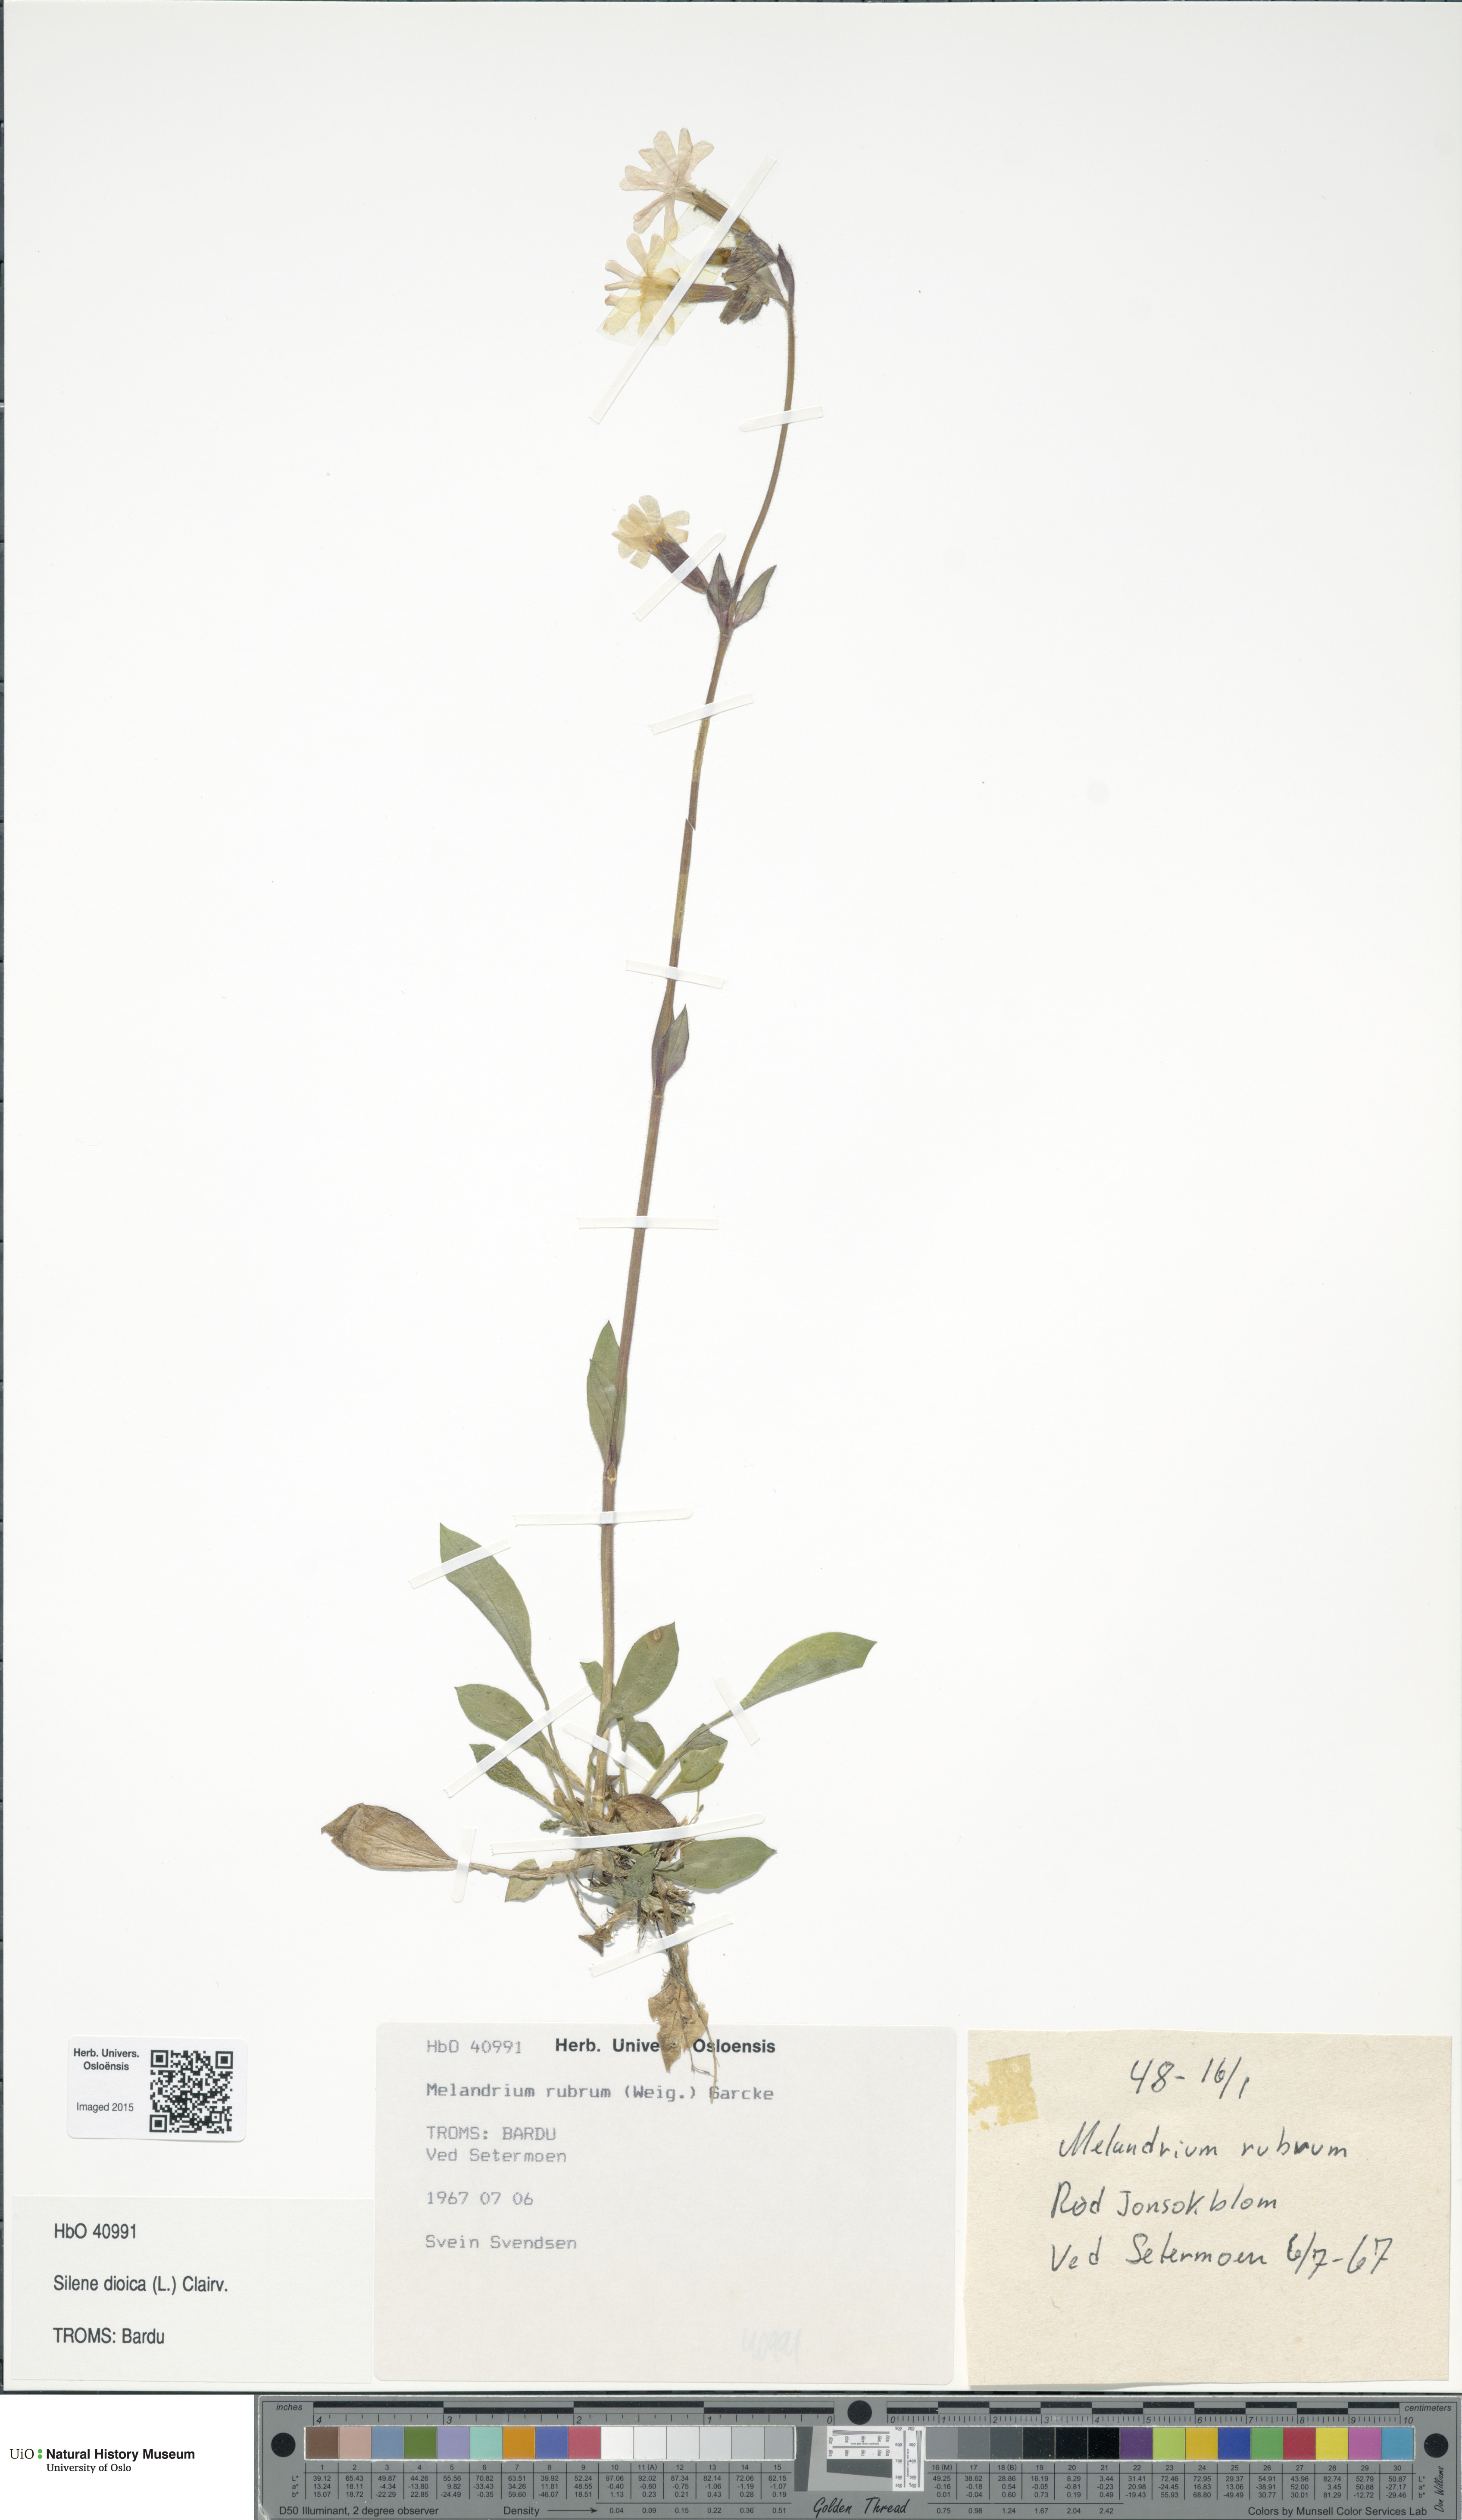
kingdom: Plantae
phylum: Tracheophyta
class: Magnoliopsida
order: Caryophyllales
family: Caryophyllaceae
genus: Silene
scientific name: Silene dioica
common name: Red campion
